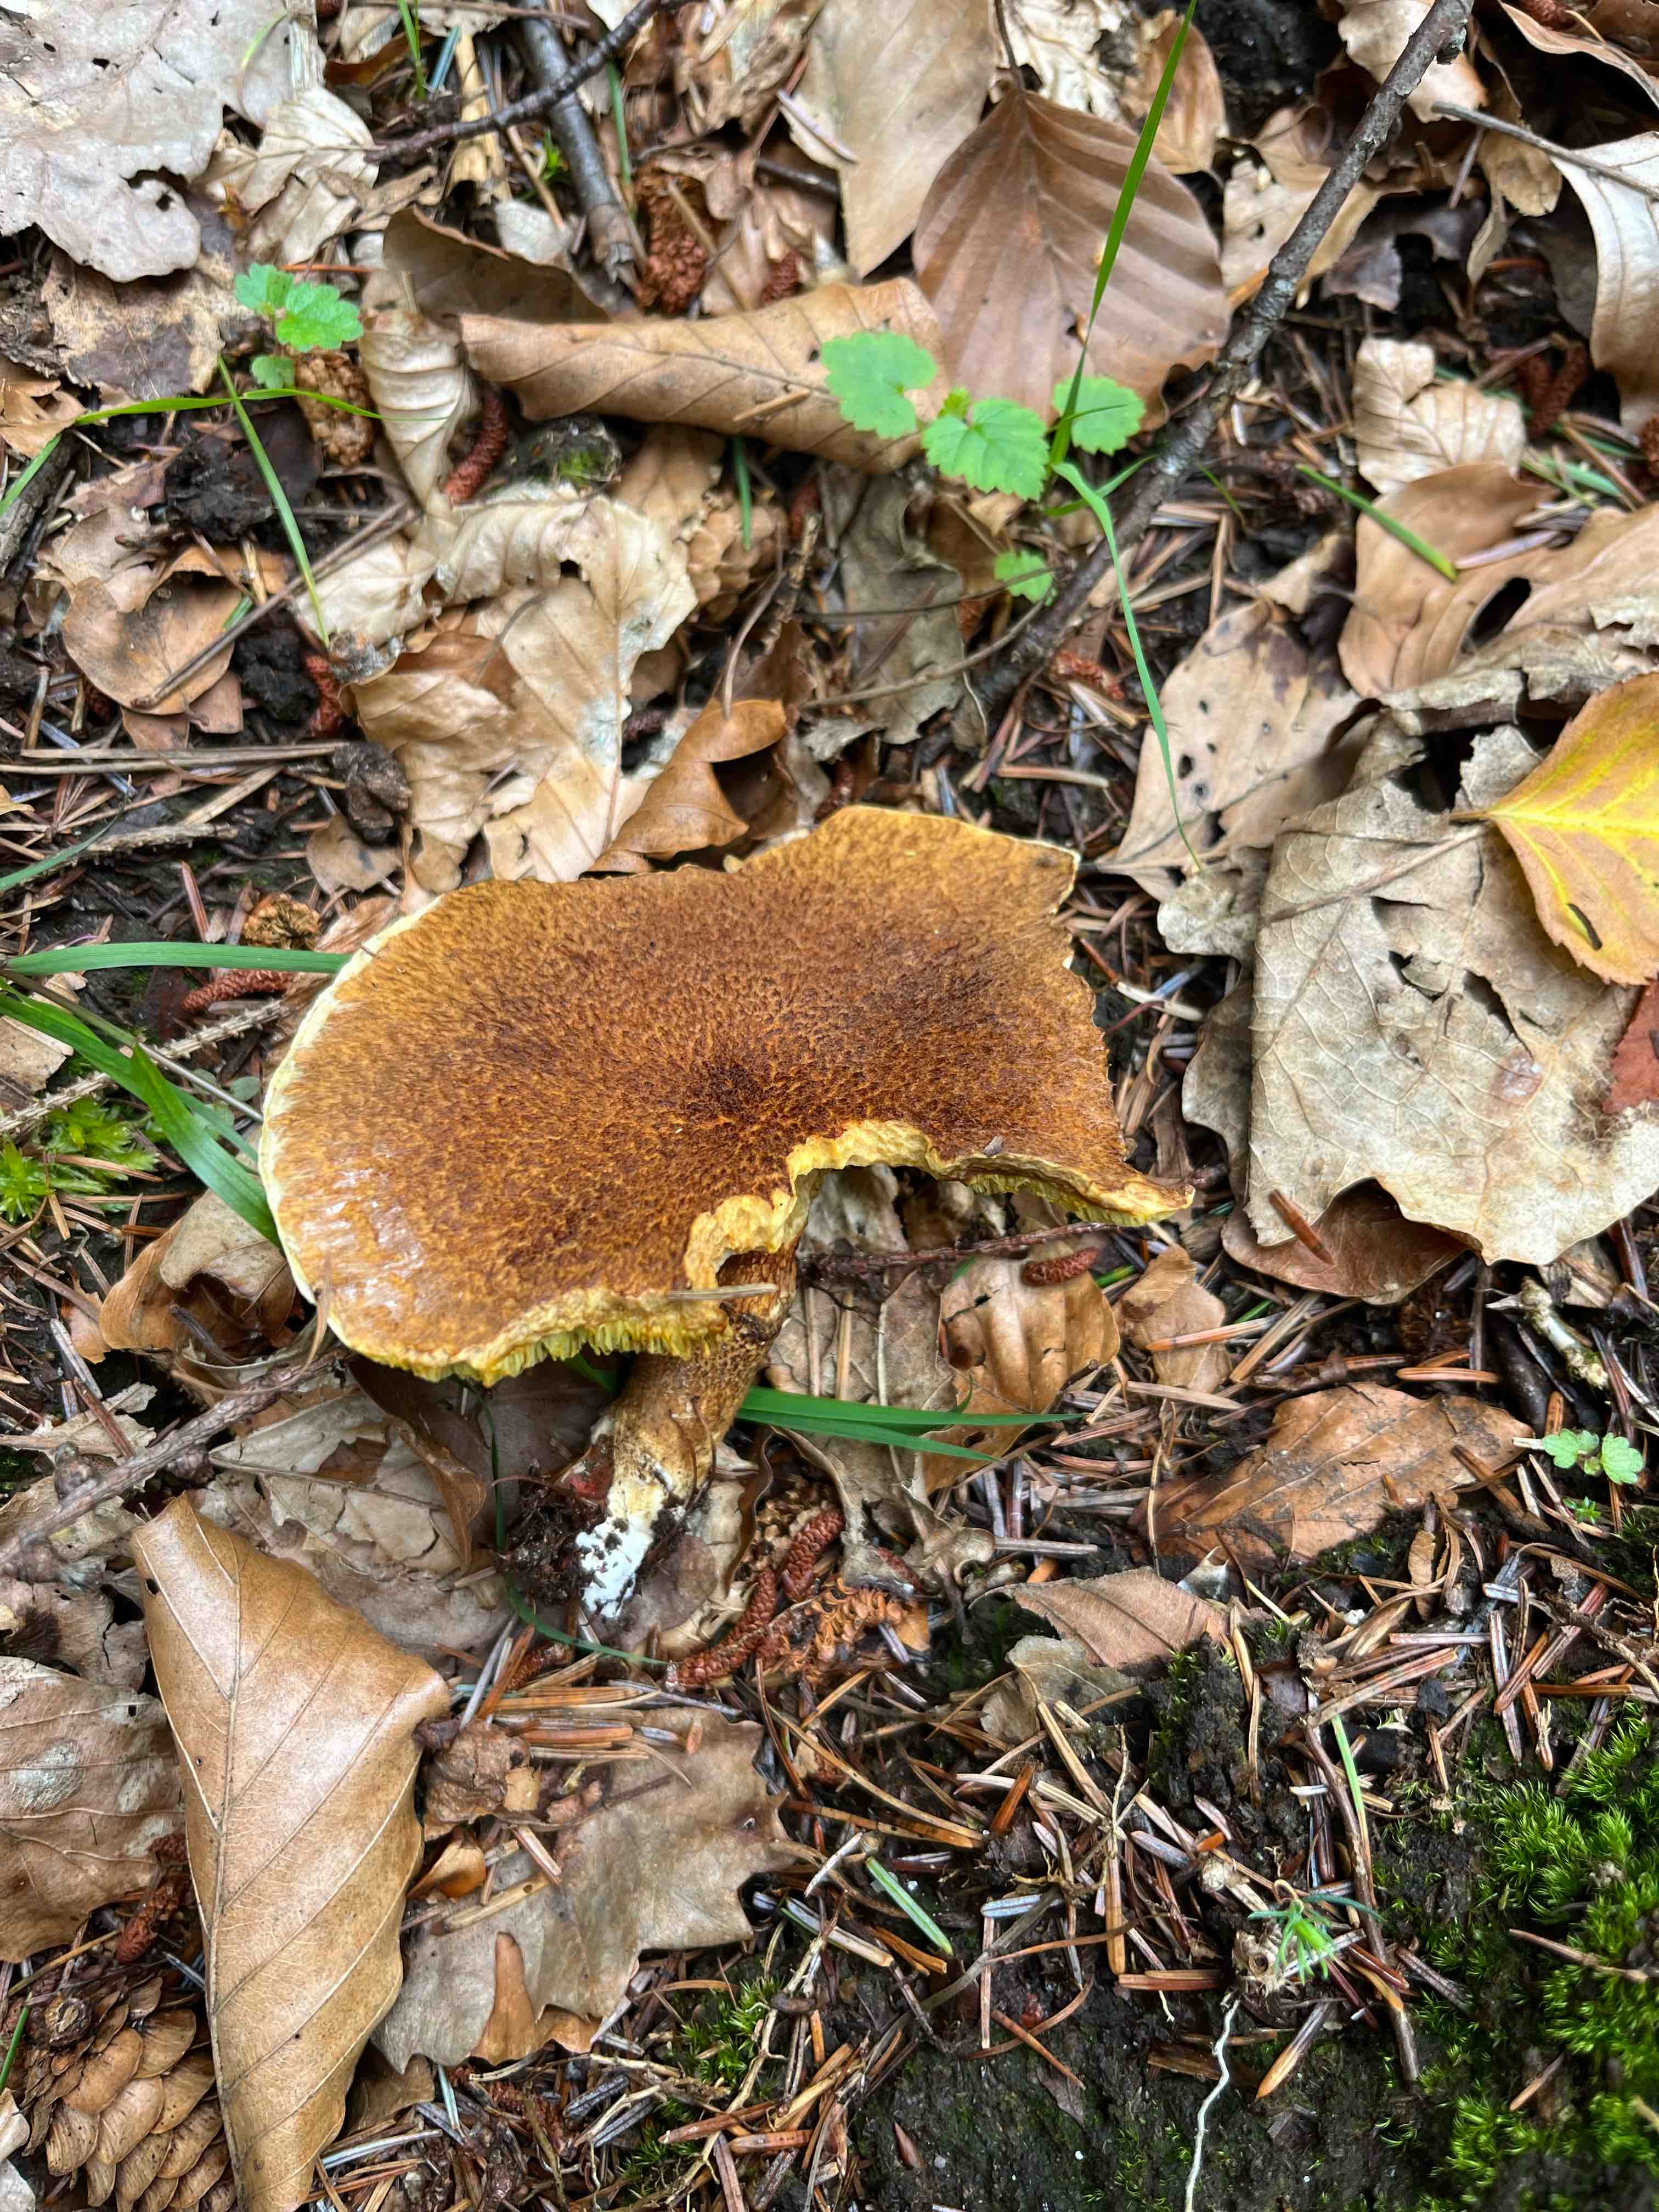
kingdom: Fungi
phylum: Basidiomycota
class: Agaricomycetes
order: Boletales
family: Suillaceae
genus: Suillus
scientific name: Suillus cavipes
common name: hulstokket slimrørhat
